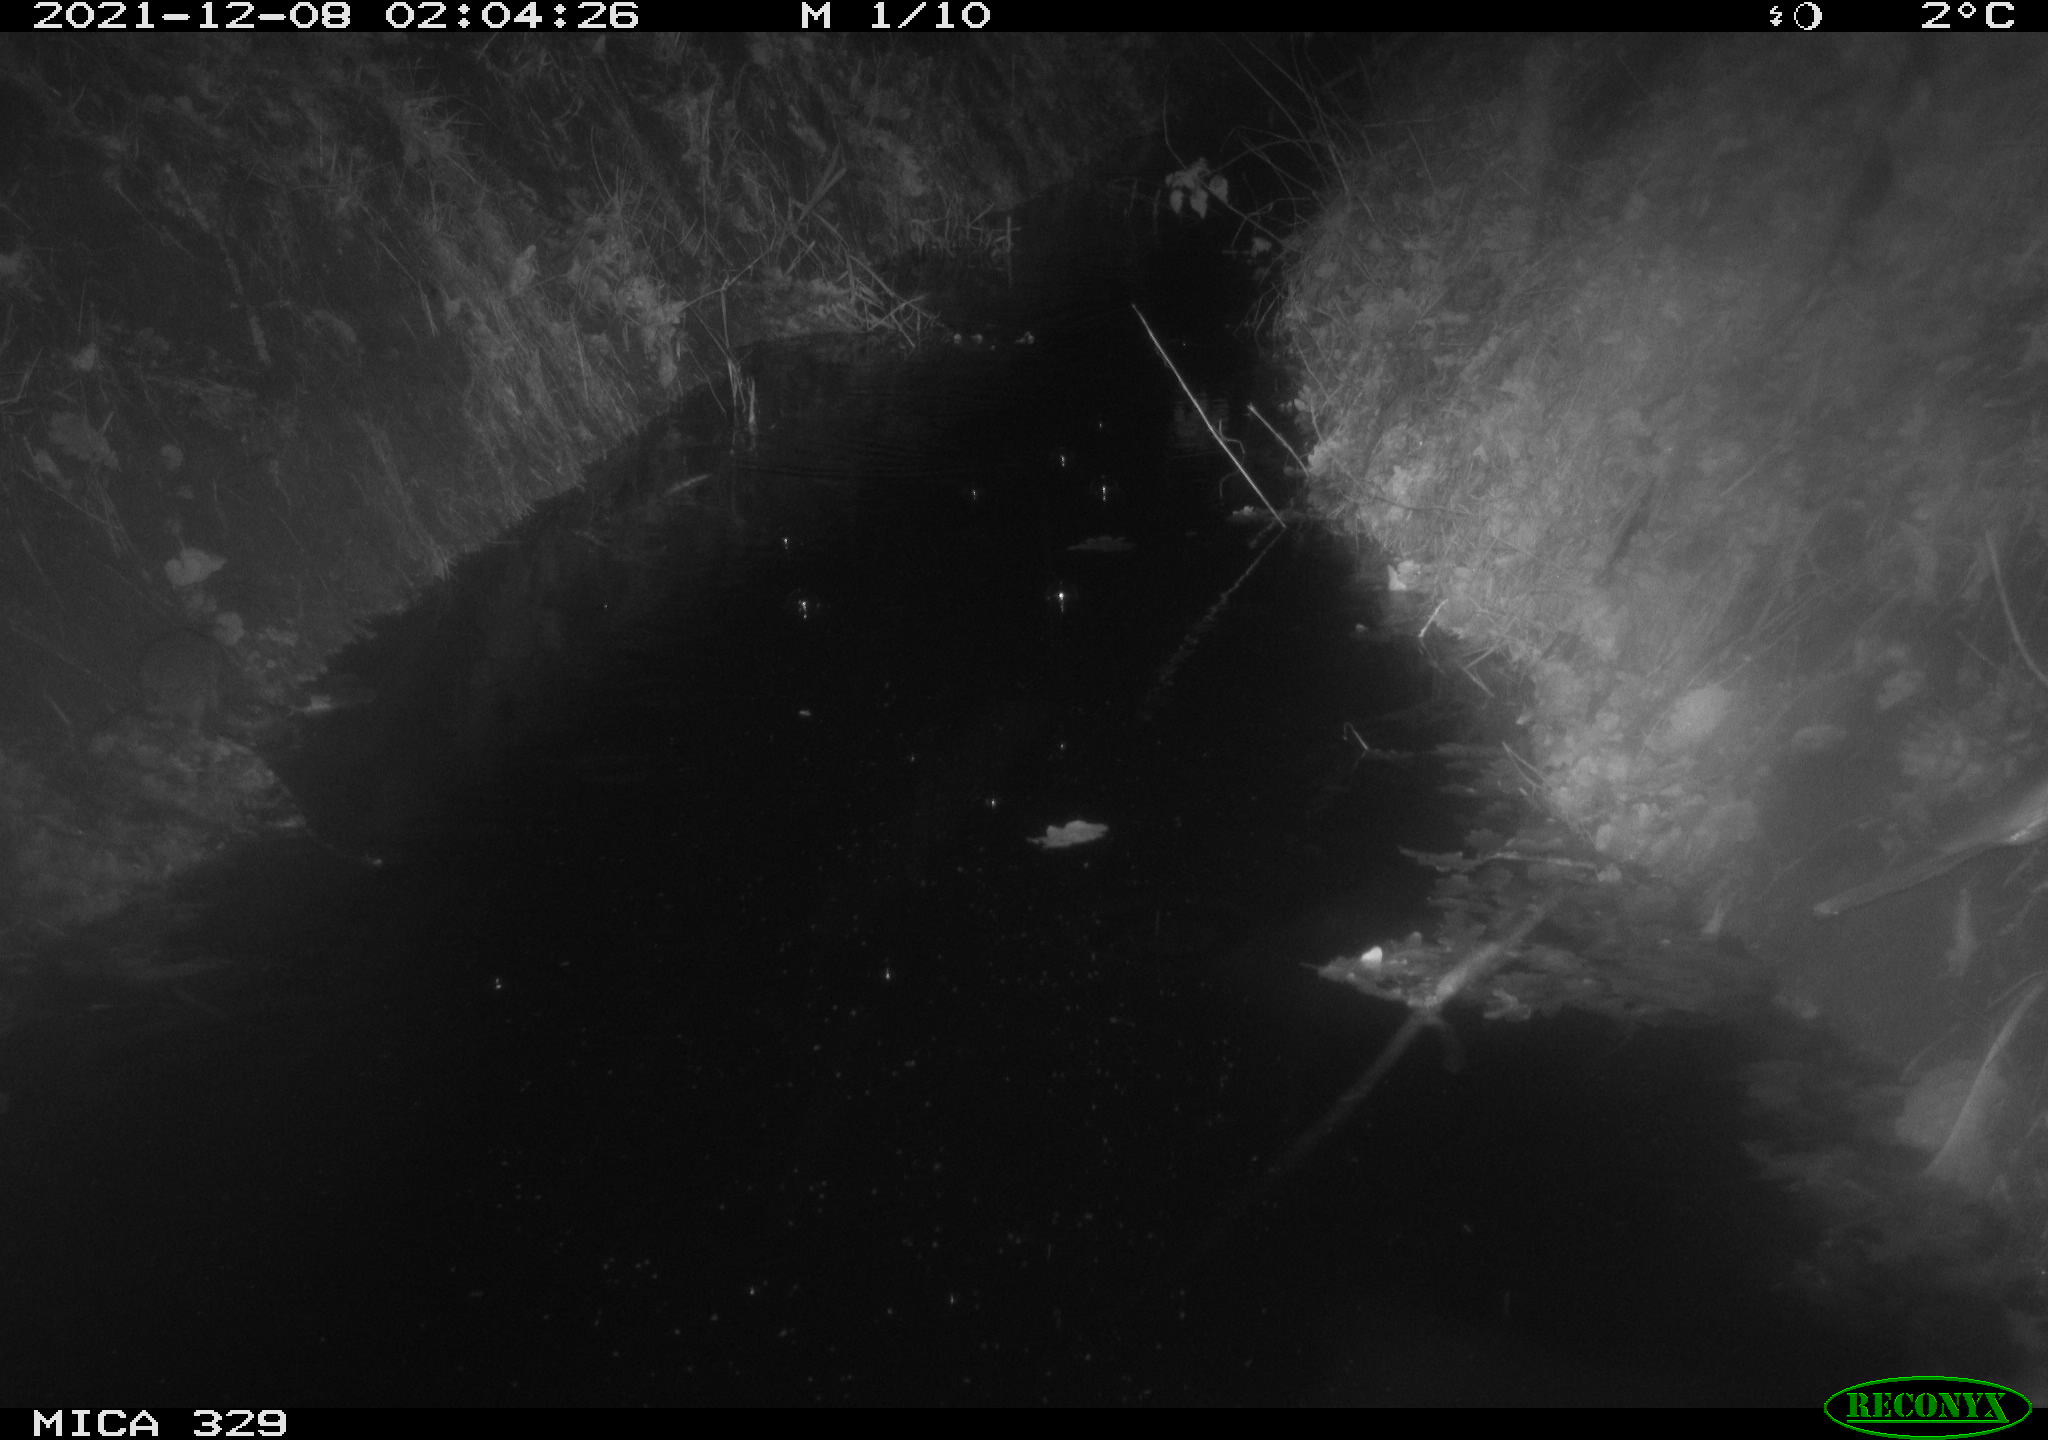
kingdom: Animalia
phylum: Chordata
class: Mammalia
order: Rodentia
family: Muridae
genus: Rattus
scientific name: Rattus norvegicus
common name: Brown rat
